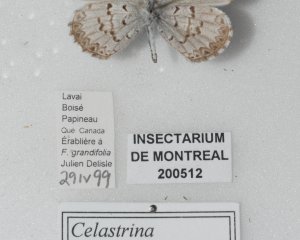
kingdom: Animalia
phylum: Arthropoda
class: Insecta
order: Lepidoptera
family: Lycaenidae
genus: Celastrina
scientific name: Celastrina lucia
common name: Northern Spring Azure
